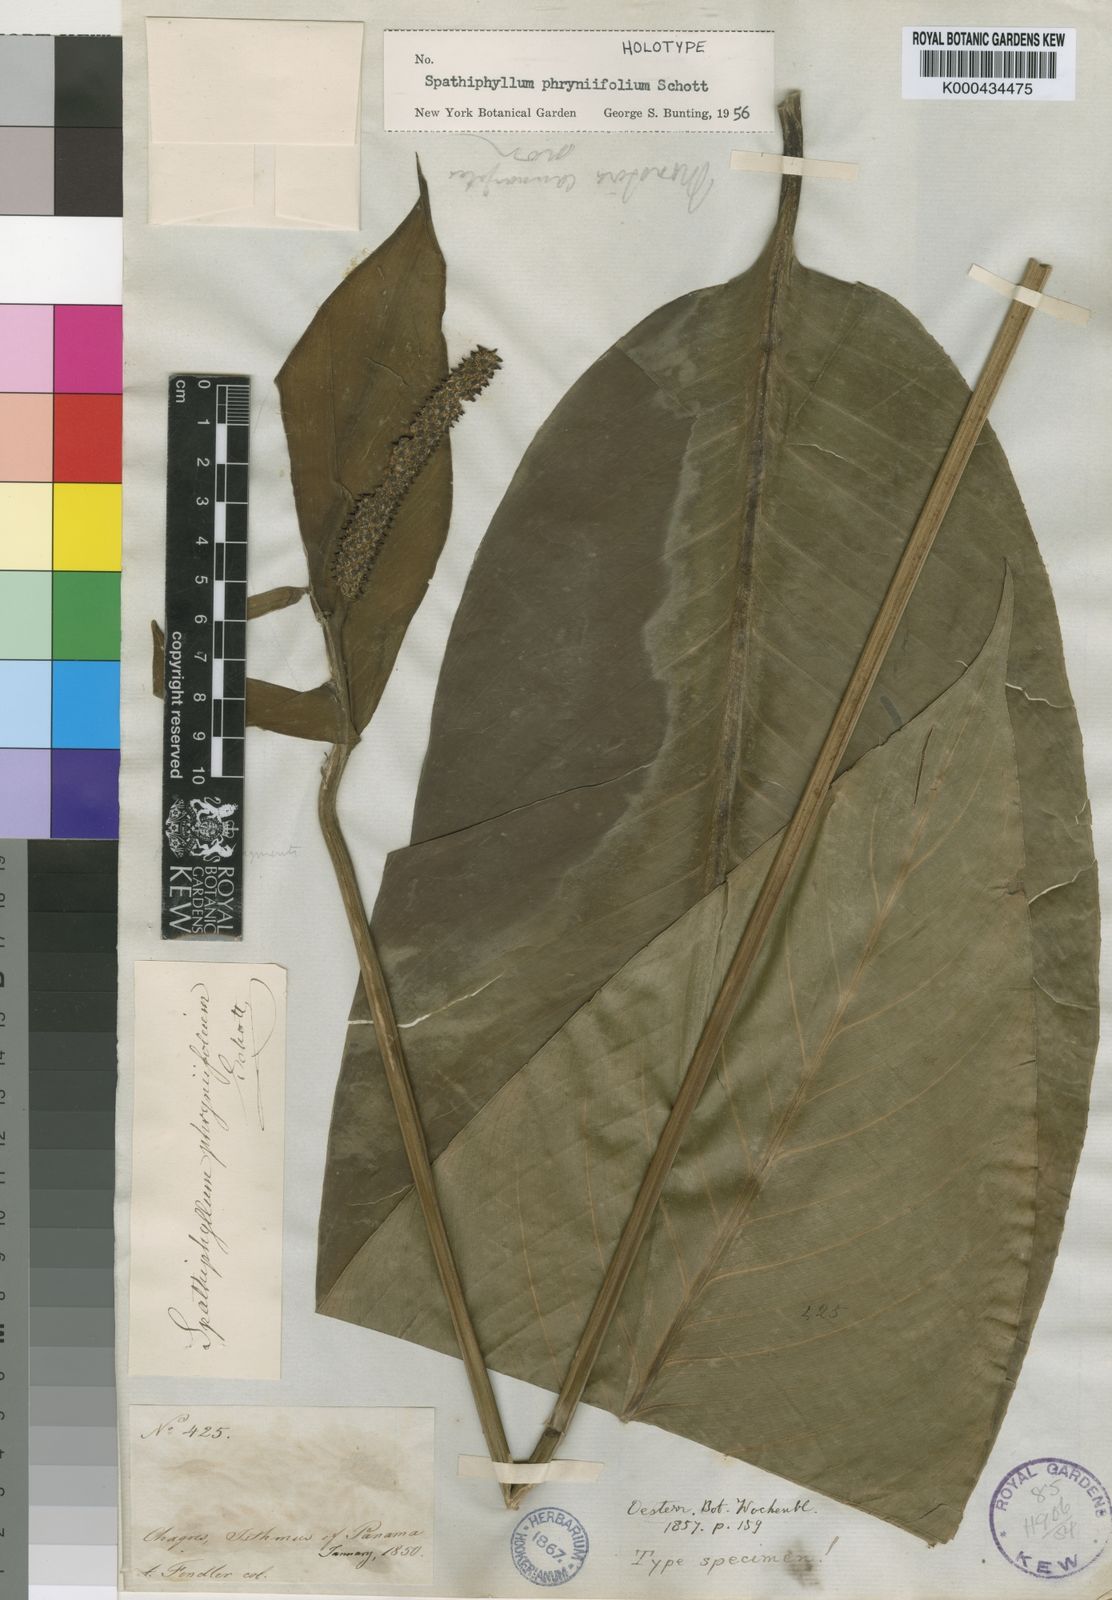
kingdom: Plantae
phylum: Tracheophyta
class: Liliopsida
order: Alismatales
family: Araceae
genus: Spathiphyllum
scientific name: Spathiphyllum phryniifolium
